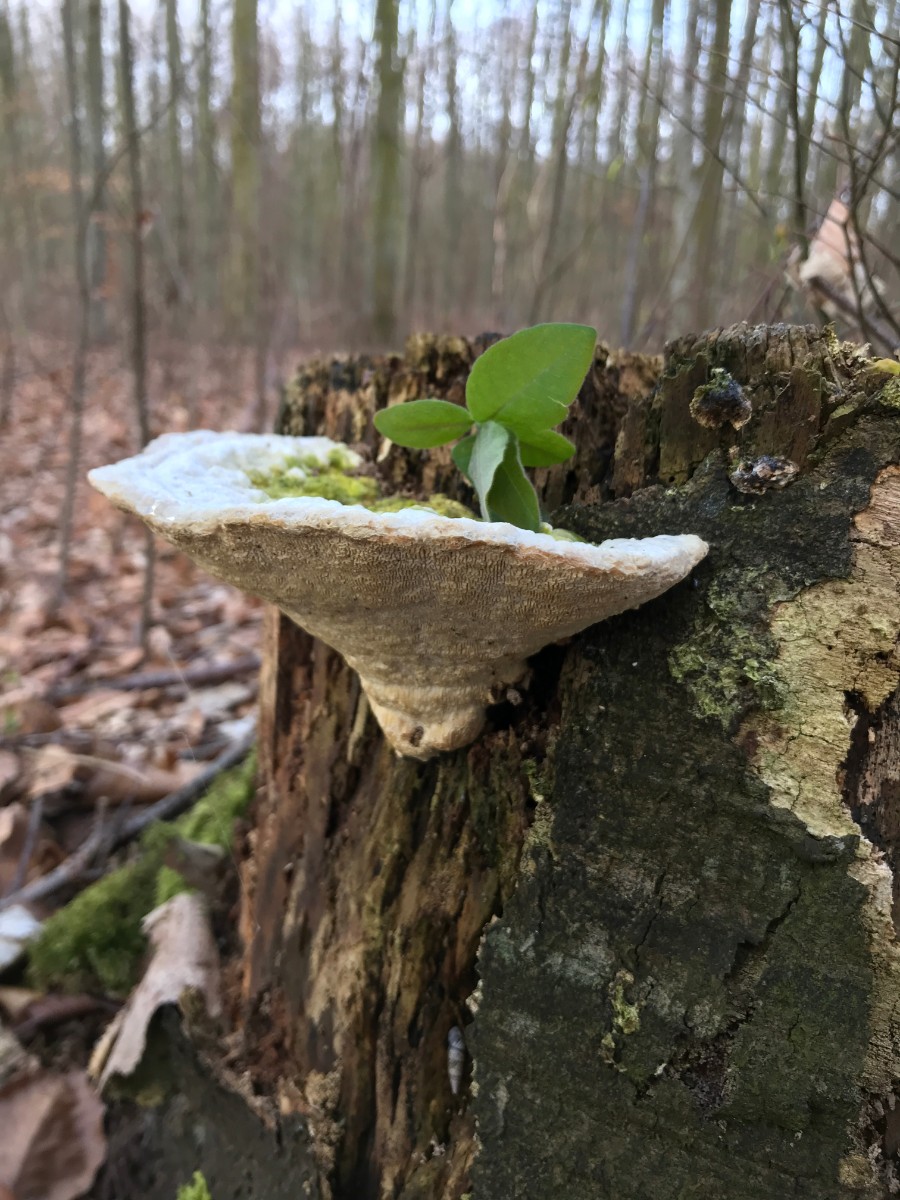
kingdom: Fungi
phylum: Basidiomycota
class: Agaricomycetes
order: Polyporales
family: Polyporaceae
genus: Trametes
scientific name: Trametes gibbosa
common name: puklet læderporesvamp
